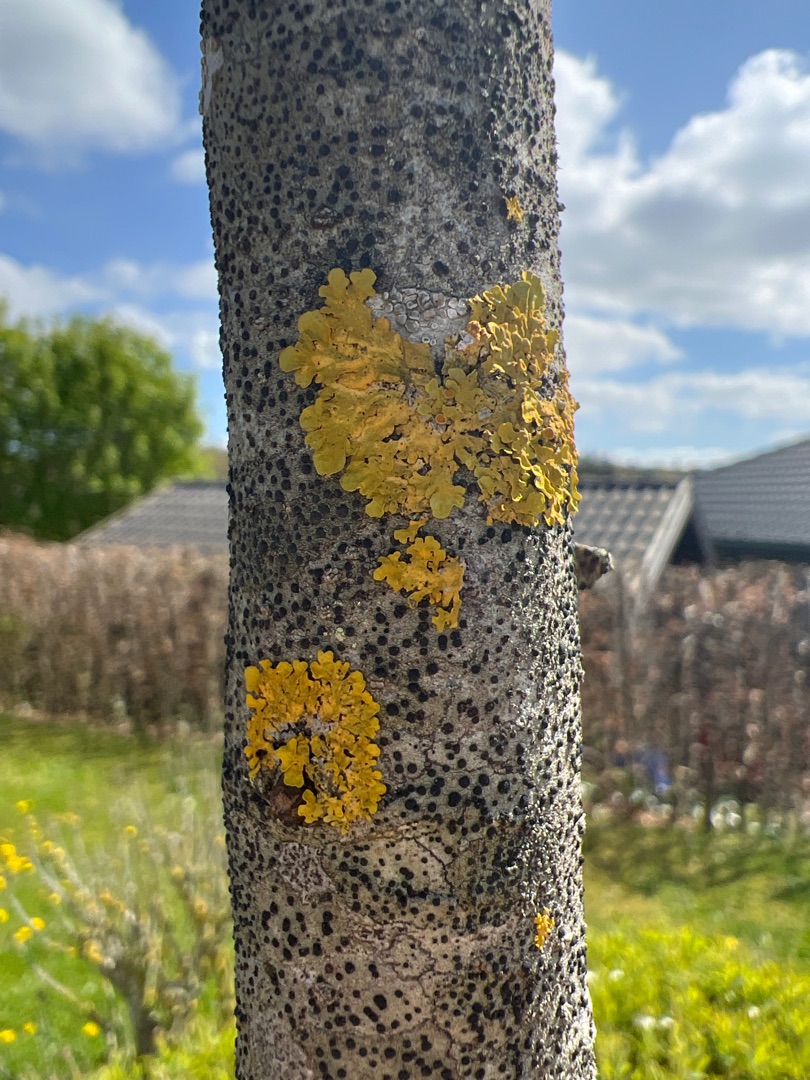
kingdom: Fungi
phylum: Ascomycota
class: Lecanoromycetes
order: Teloschistales
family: Teloschistaceae
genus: Xanthoria
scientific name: Xanthoria parietina
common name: Almindelig væggelav
